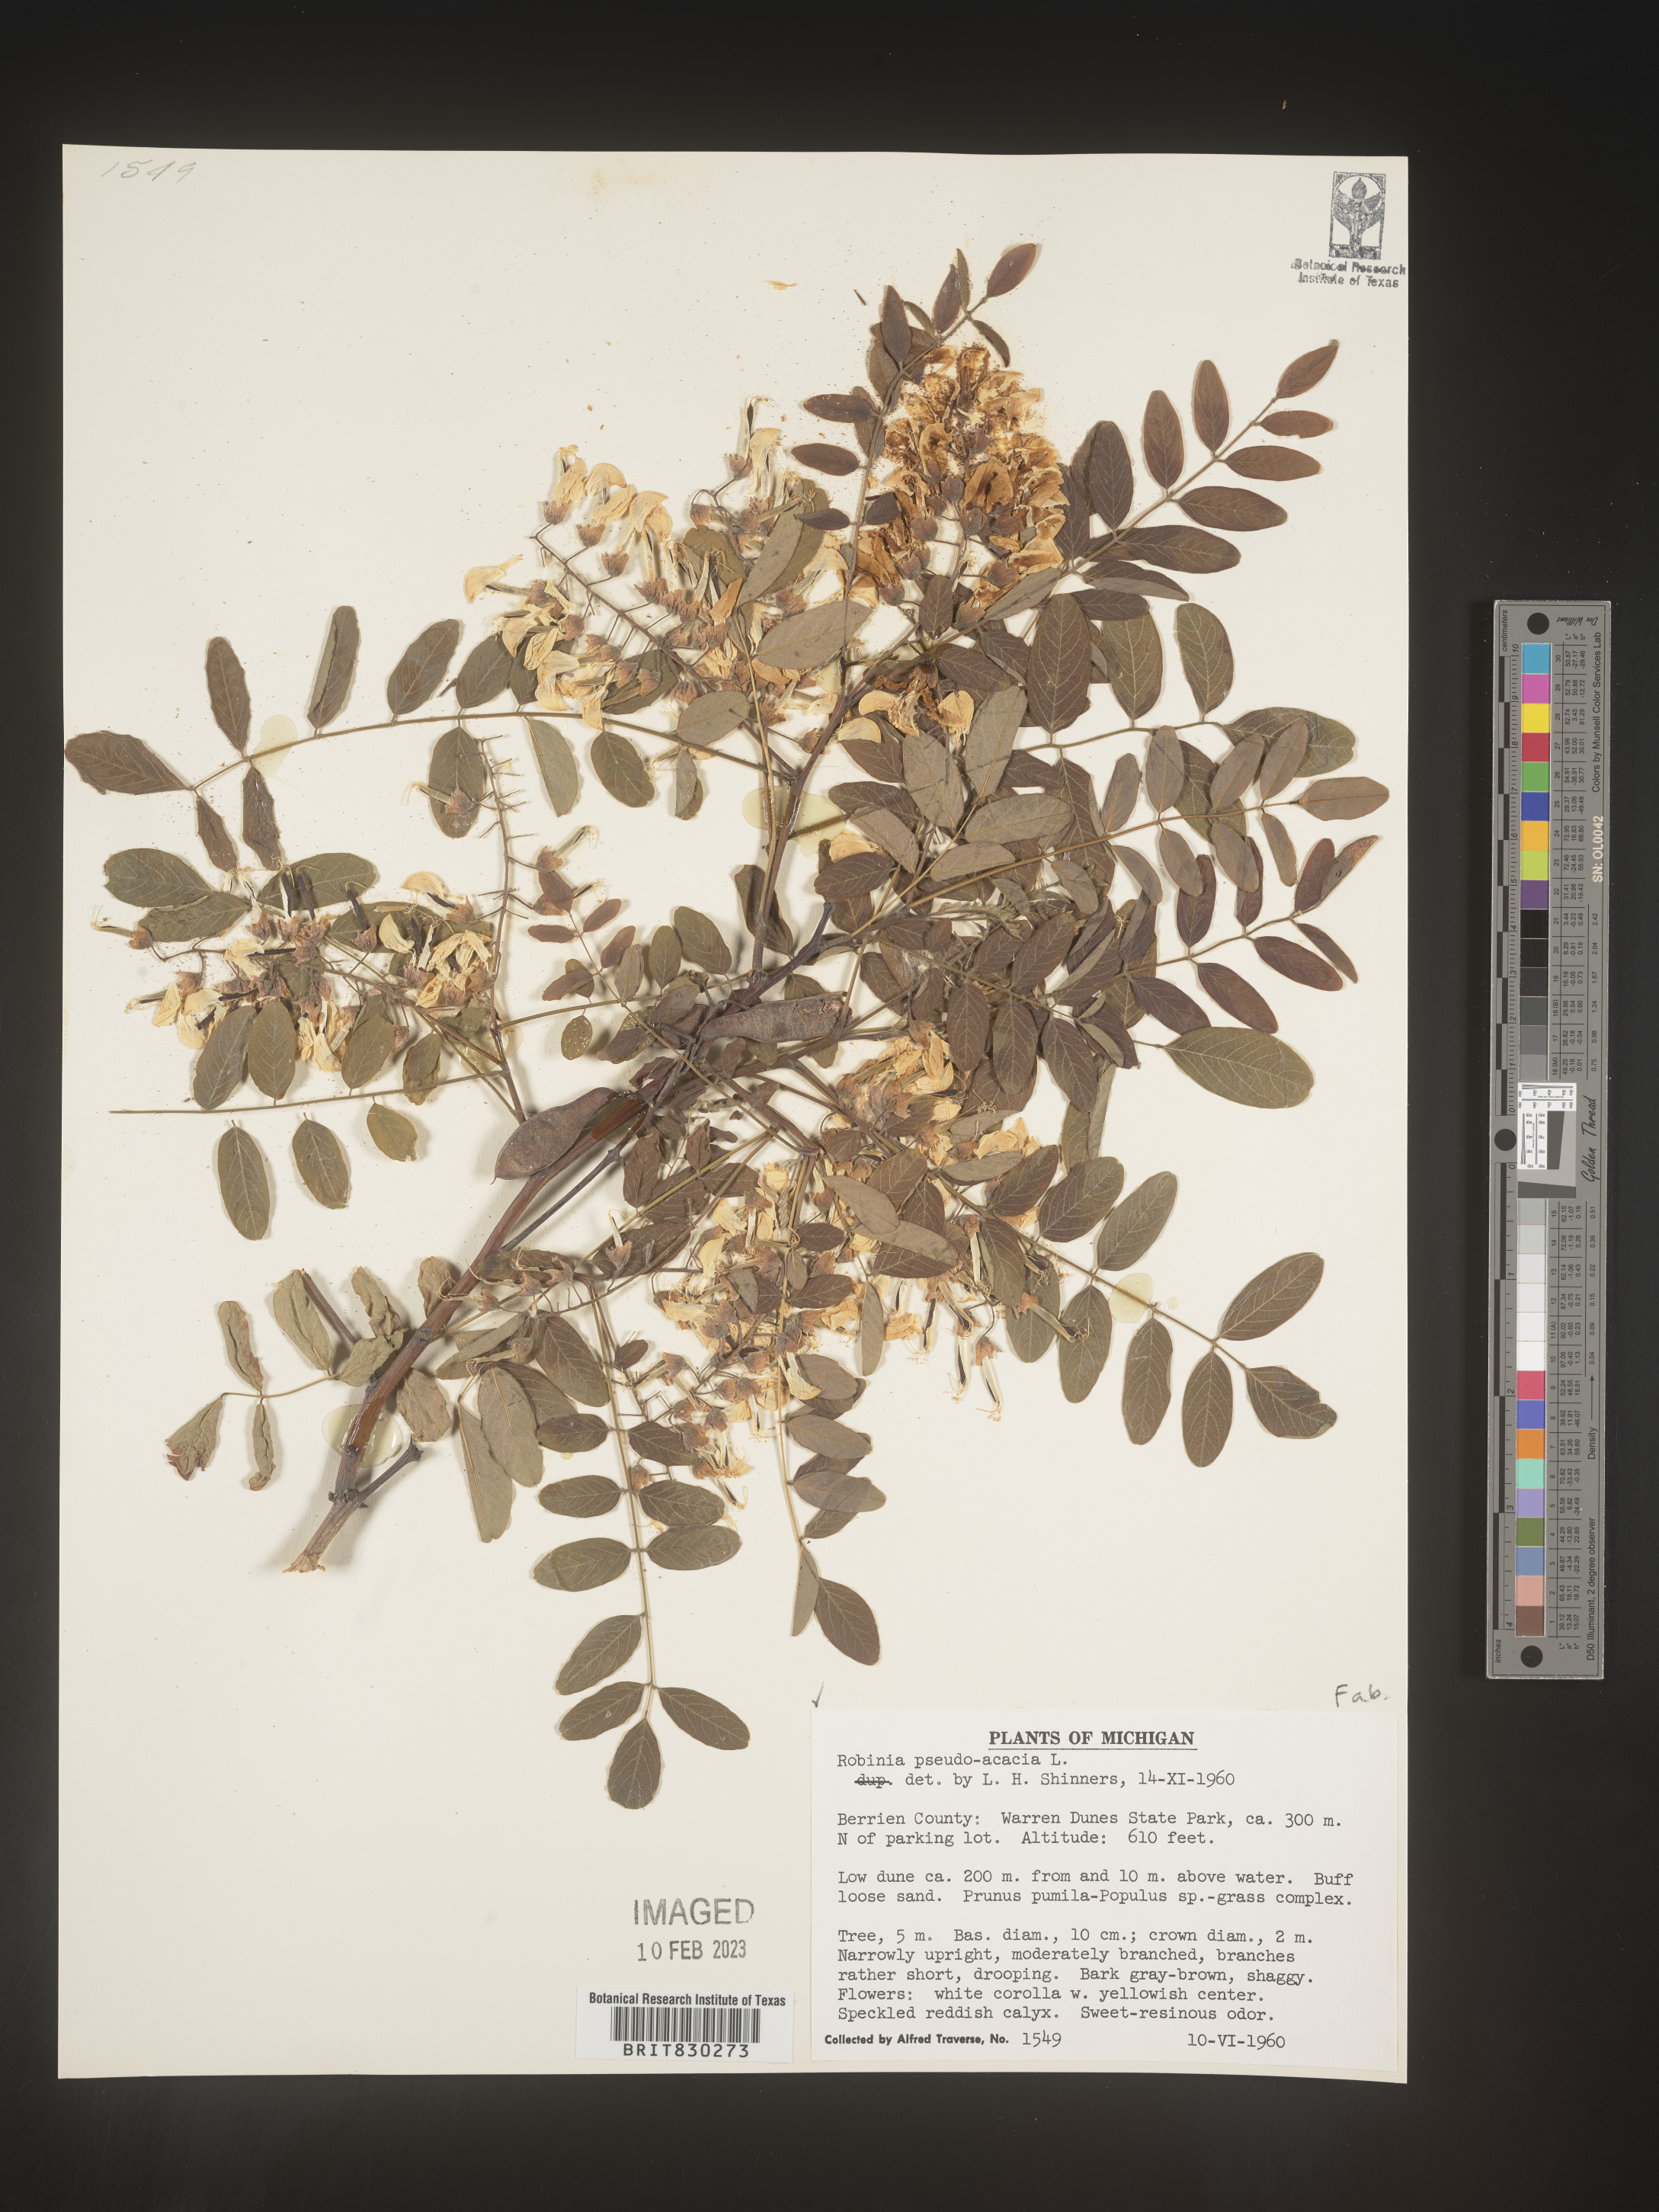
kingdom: Plantae
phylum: Tracheophyta
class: Magnoliopsida
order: Fabales
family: Fabaceae
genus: Robinia
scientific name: Robinia pseudoacacia
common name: Black locust
